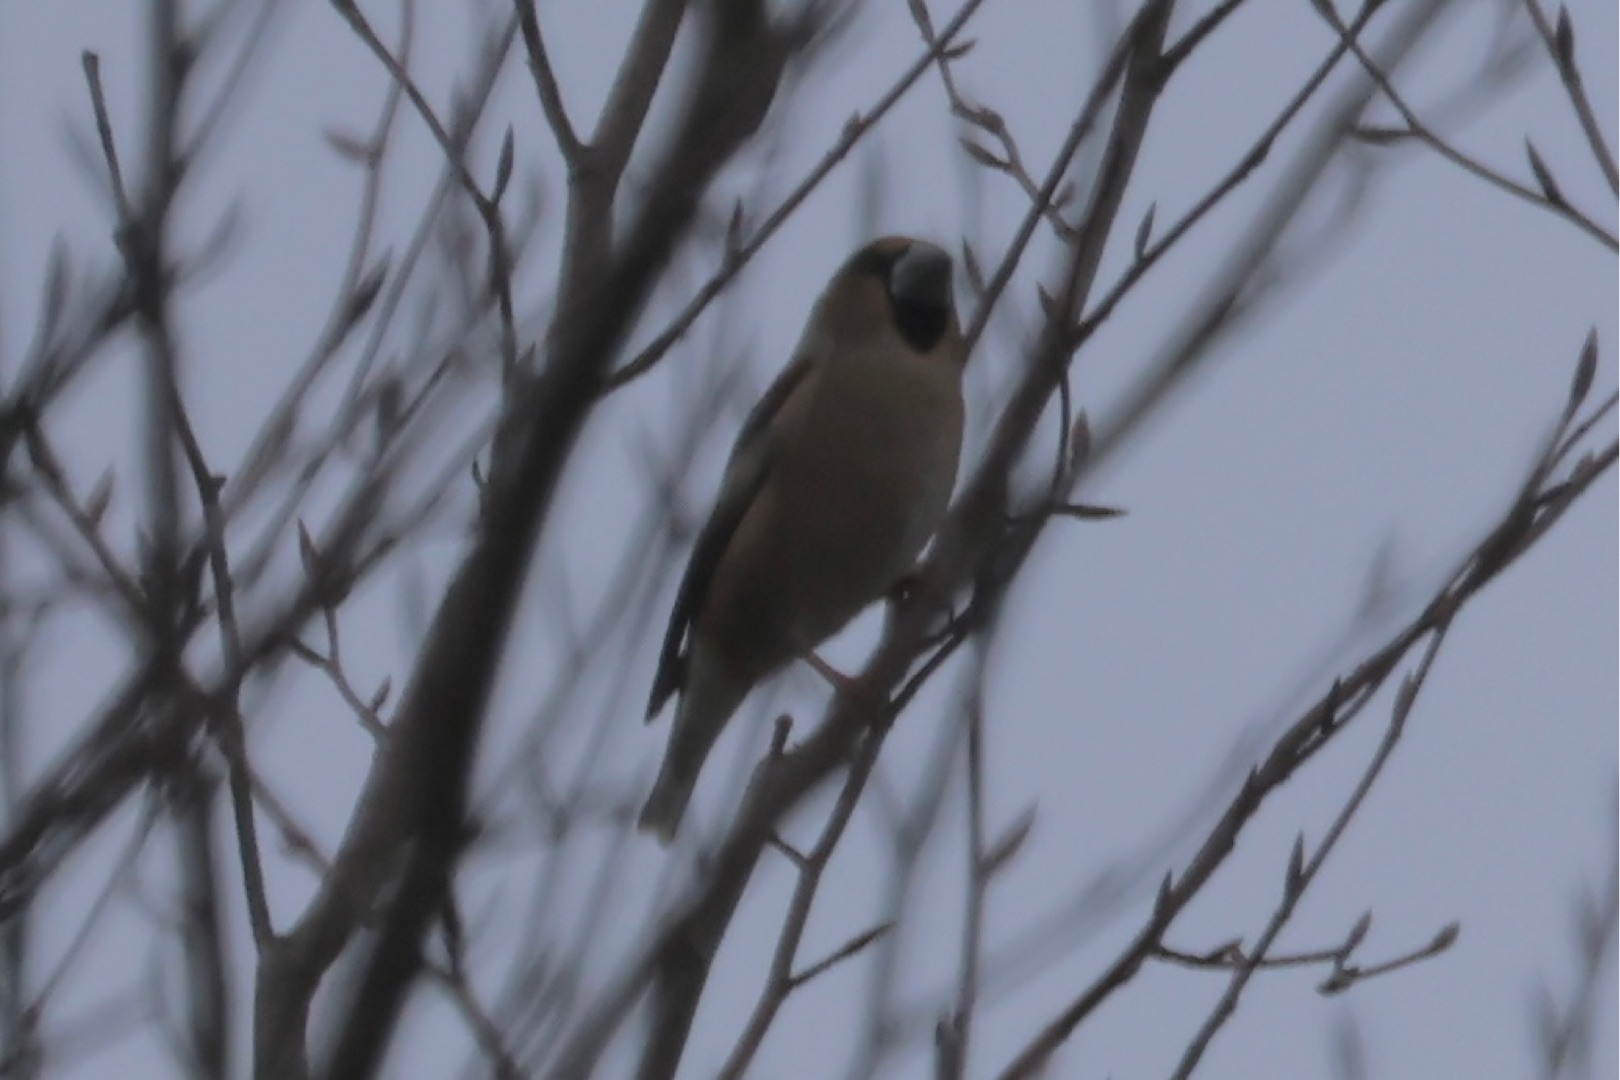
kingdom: Animalia
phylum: Chordata
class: Aves
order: Passeriformes
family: Fringillidae
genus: Coccothraustes
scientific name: Coccothraustes coccothraustes
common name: Kernebider
